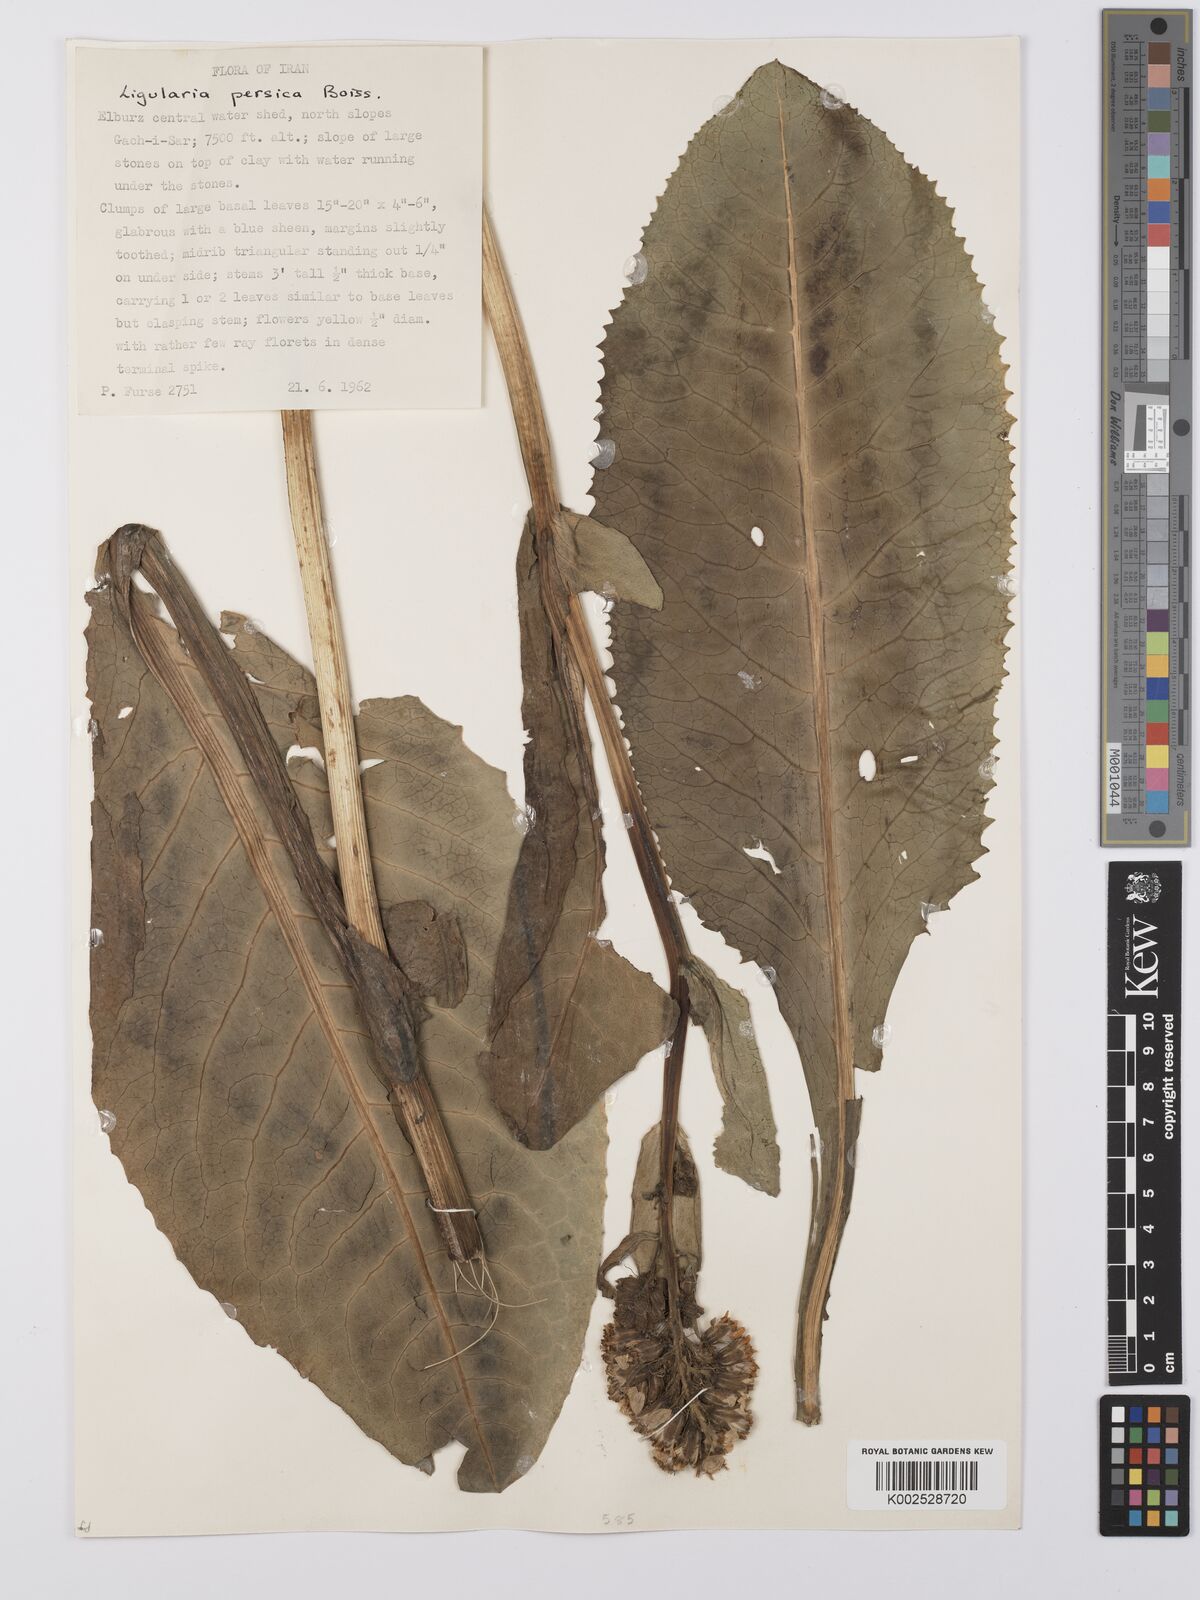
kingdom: Plantae
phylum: Tracheophyta
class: Magnoliopsida
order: Asterales
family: Asteraceae
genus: Dolichorrhiza
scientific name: Dolichorrhiza persica
